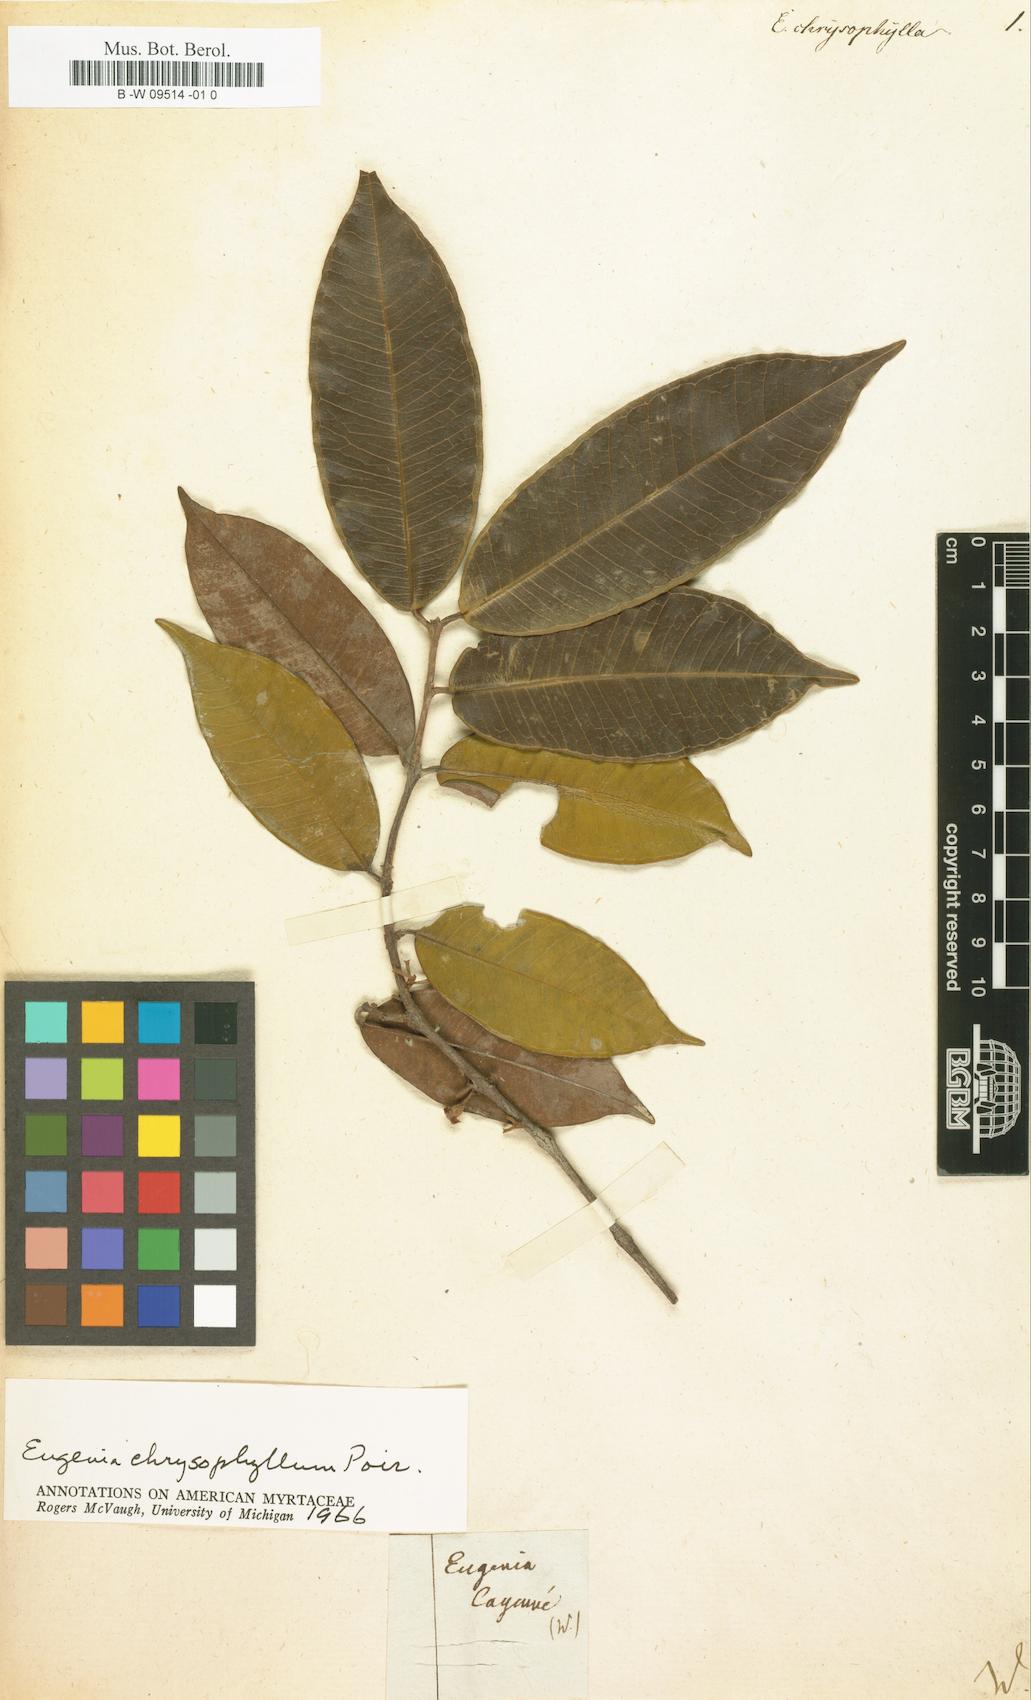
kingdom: Plantae
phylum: Tracheophyta
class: Magnoliopsida
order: Myrtales
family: Myrtaceae
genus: Eugenia
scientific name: Eugenia chrysophylla
